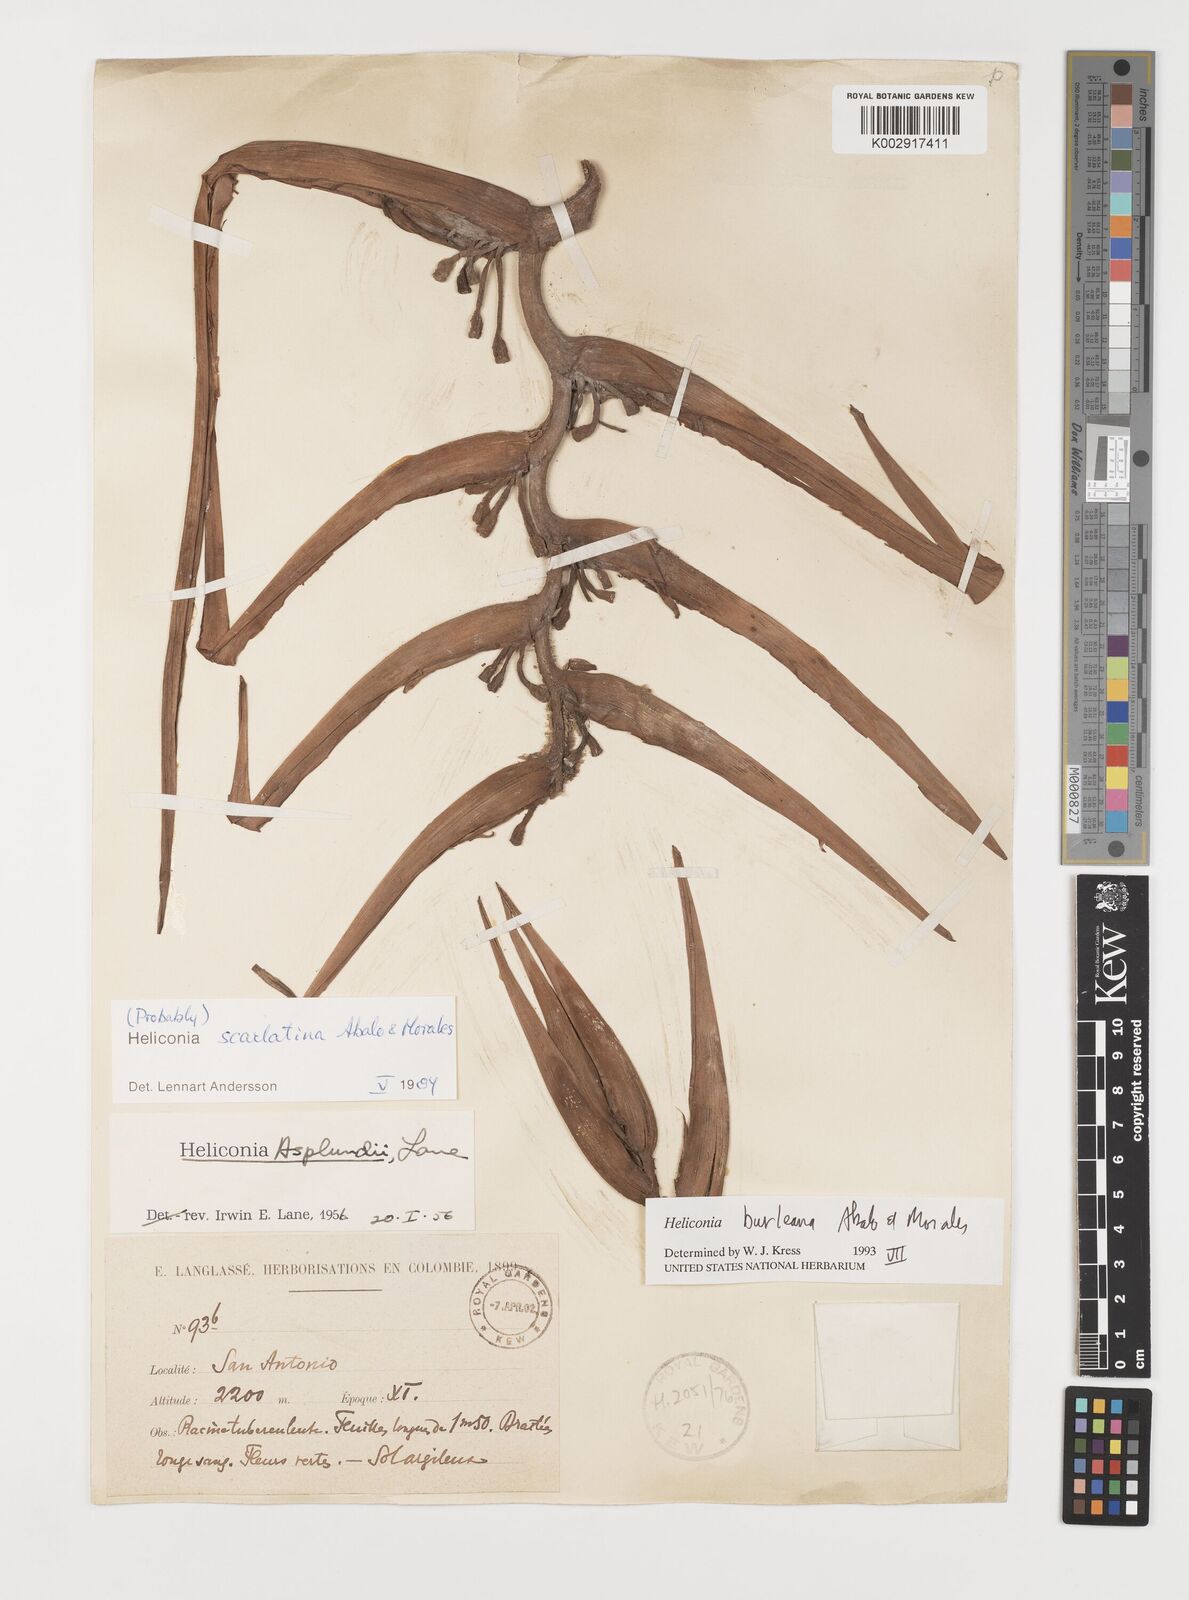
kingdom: Plantae
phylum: Tracheophyta
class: Liliopsida
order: Zingiberales
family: Heliconiaceae
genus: Heliconia
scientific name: Heliconia burleana
